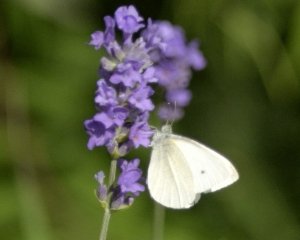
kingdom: Animalia
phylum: Arthropoda
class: Insecta
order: Lepidoptera
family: Pieridae
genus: Pieris
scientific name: Pieris rapae
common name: Cabbage White
